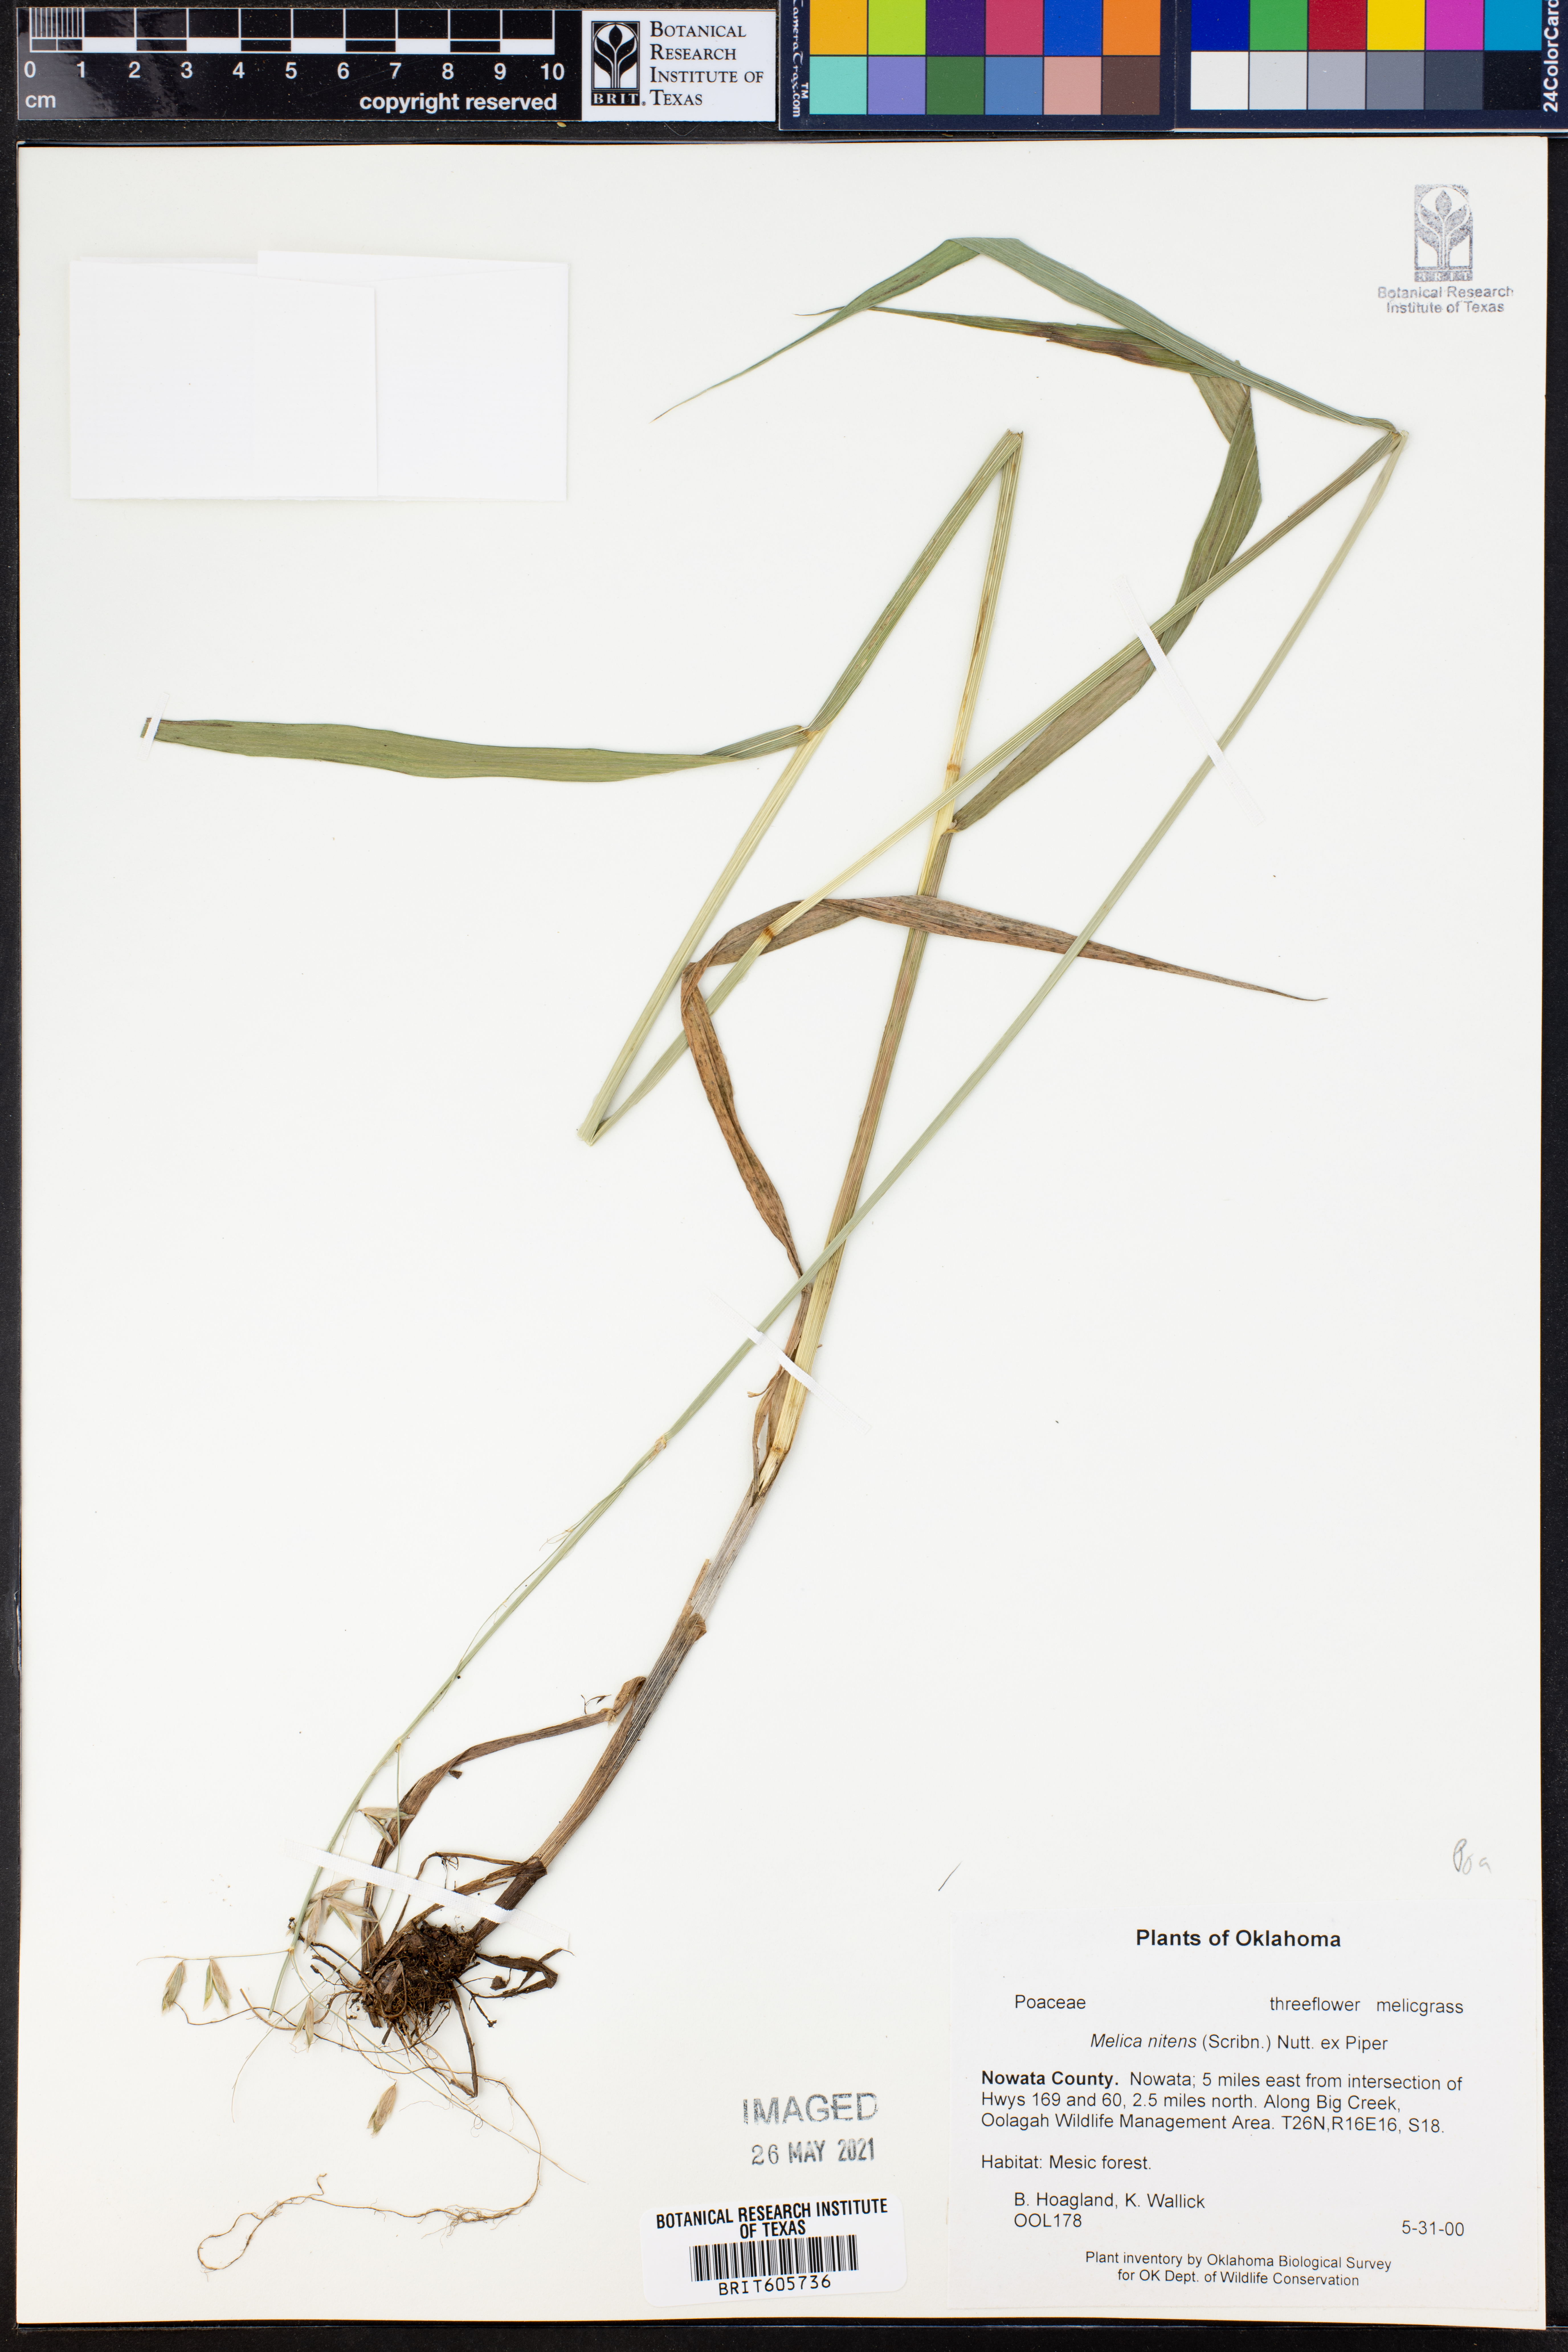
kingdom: Plantae
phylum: Tracheophyta
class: Liliopsida
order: Poales
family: Poaceae
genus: Melica
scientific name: Melica nitens
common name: Three-flower melic
